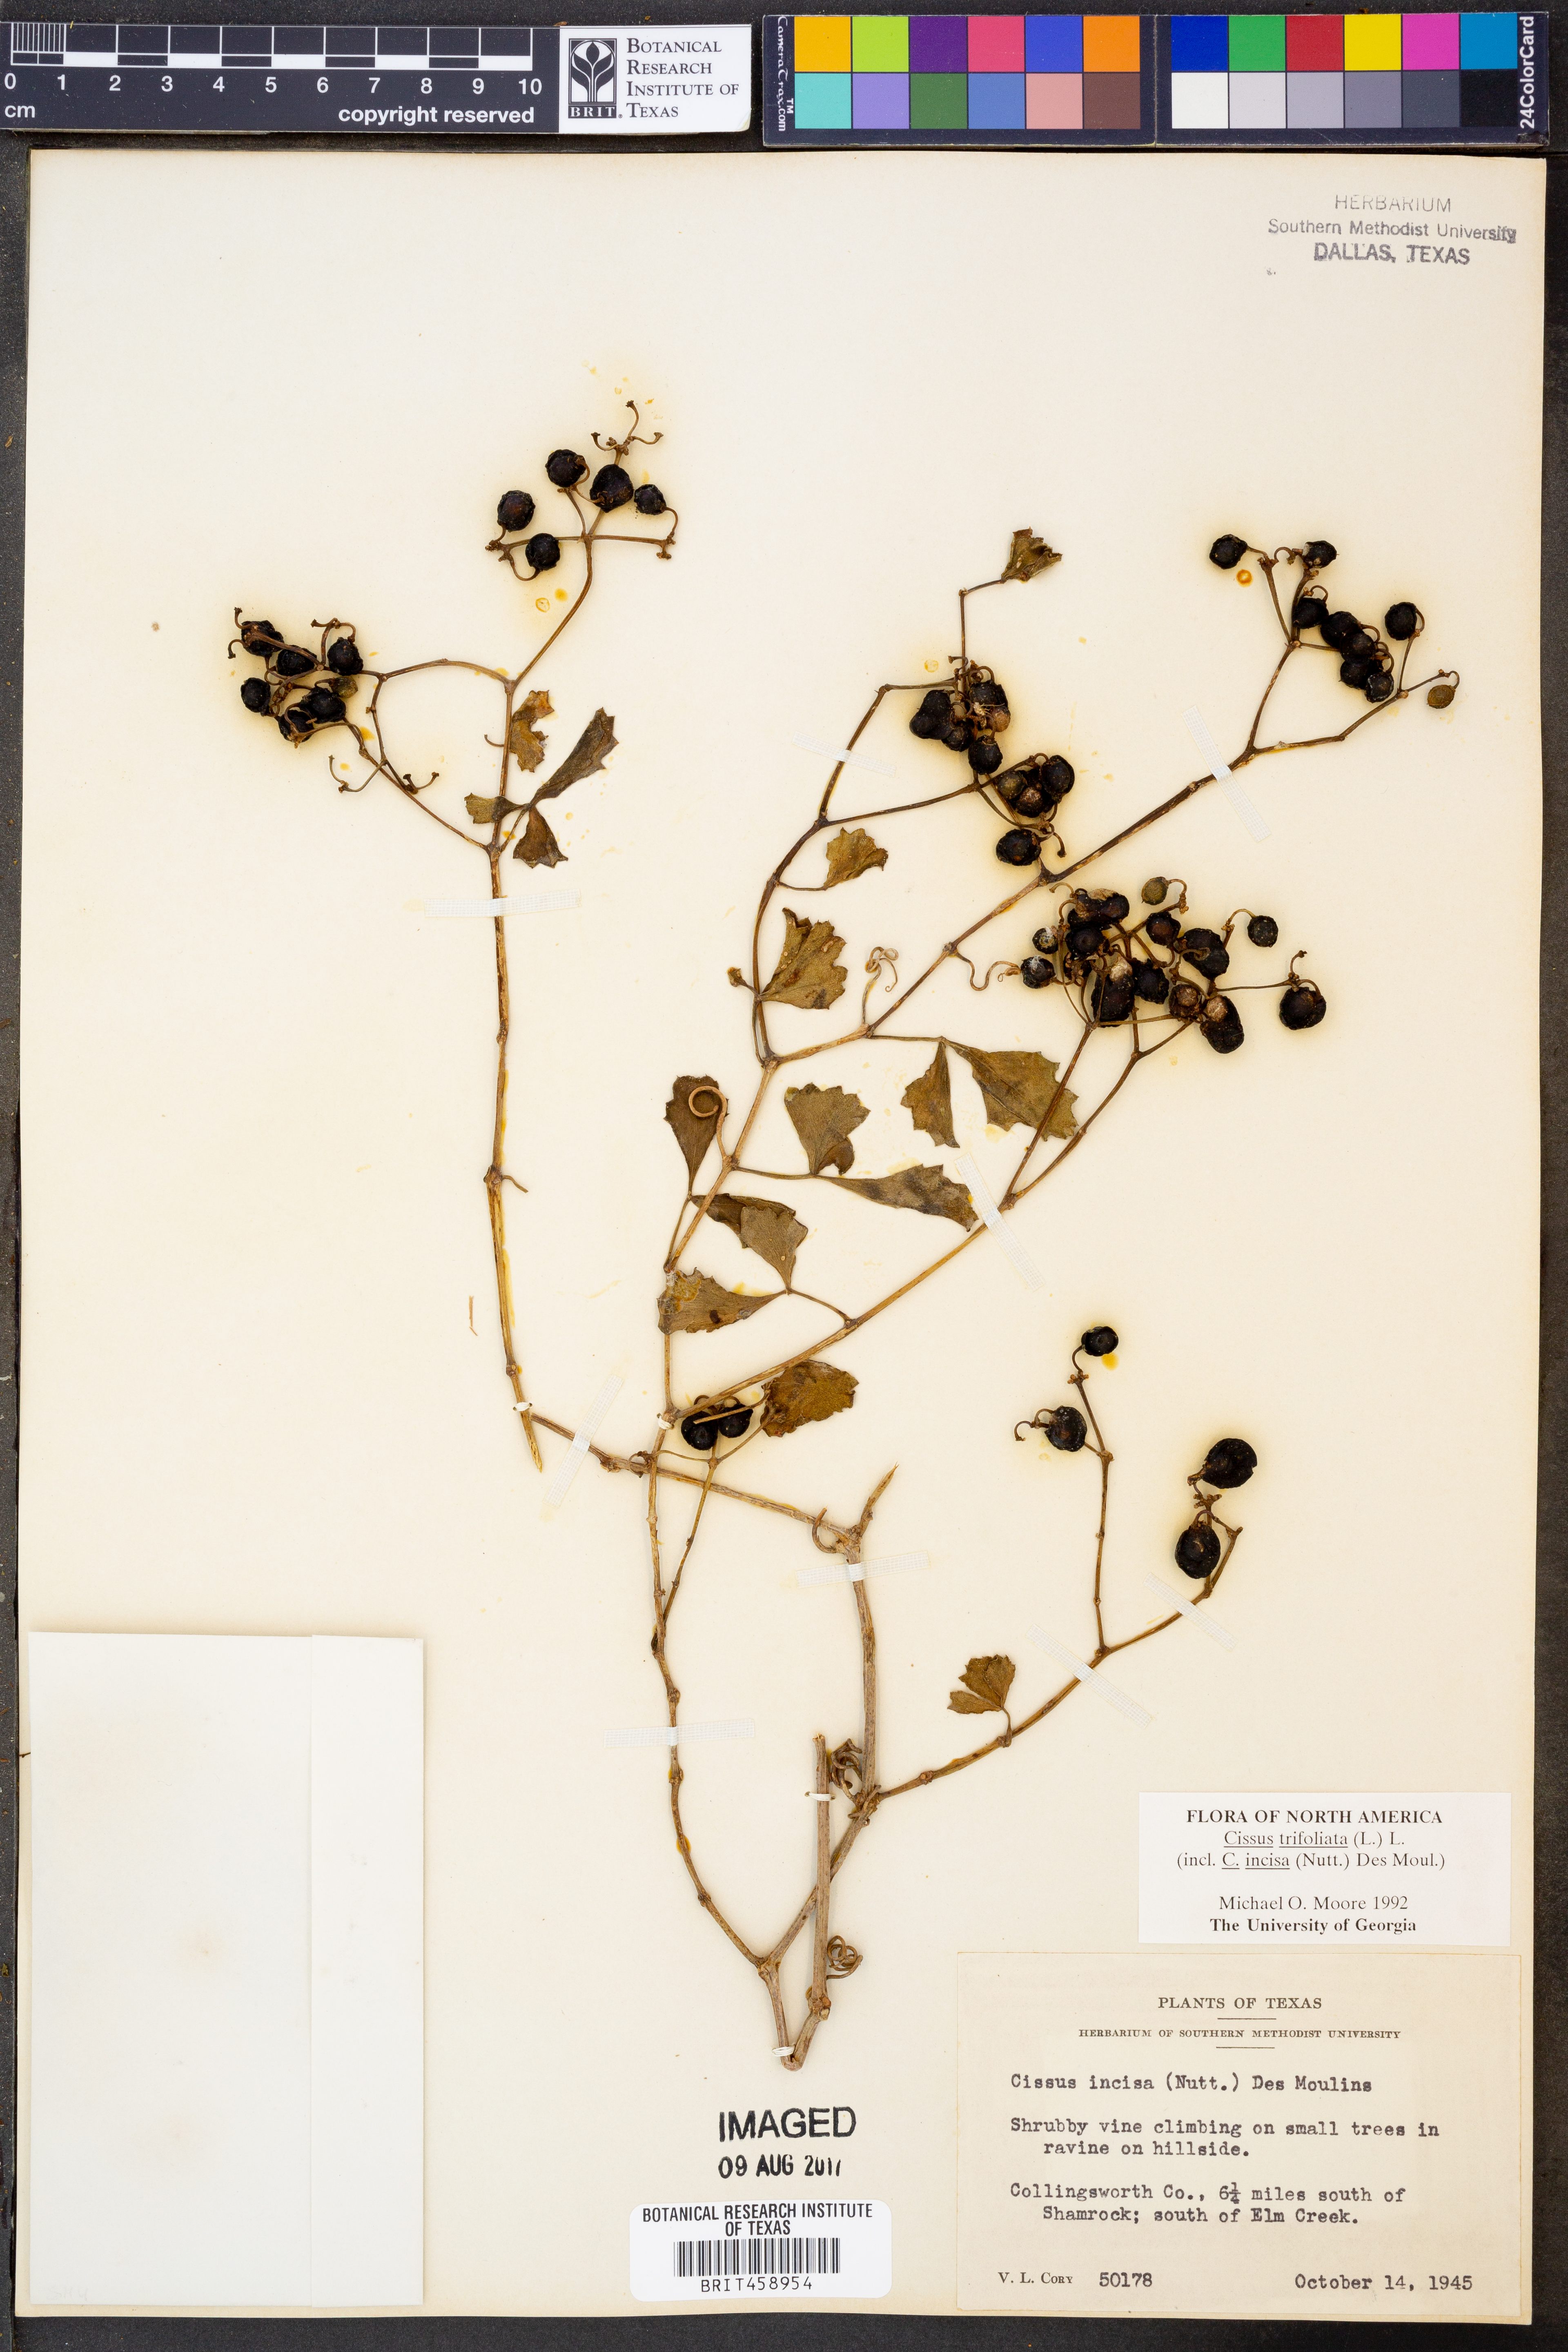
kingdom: Plantae
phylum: Tracheophyta
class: Magnoliopsida
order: Vitales
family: Vitaceae
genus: Cissus
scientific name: Cissus trifoliata
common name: Vine-sorrel
